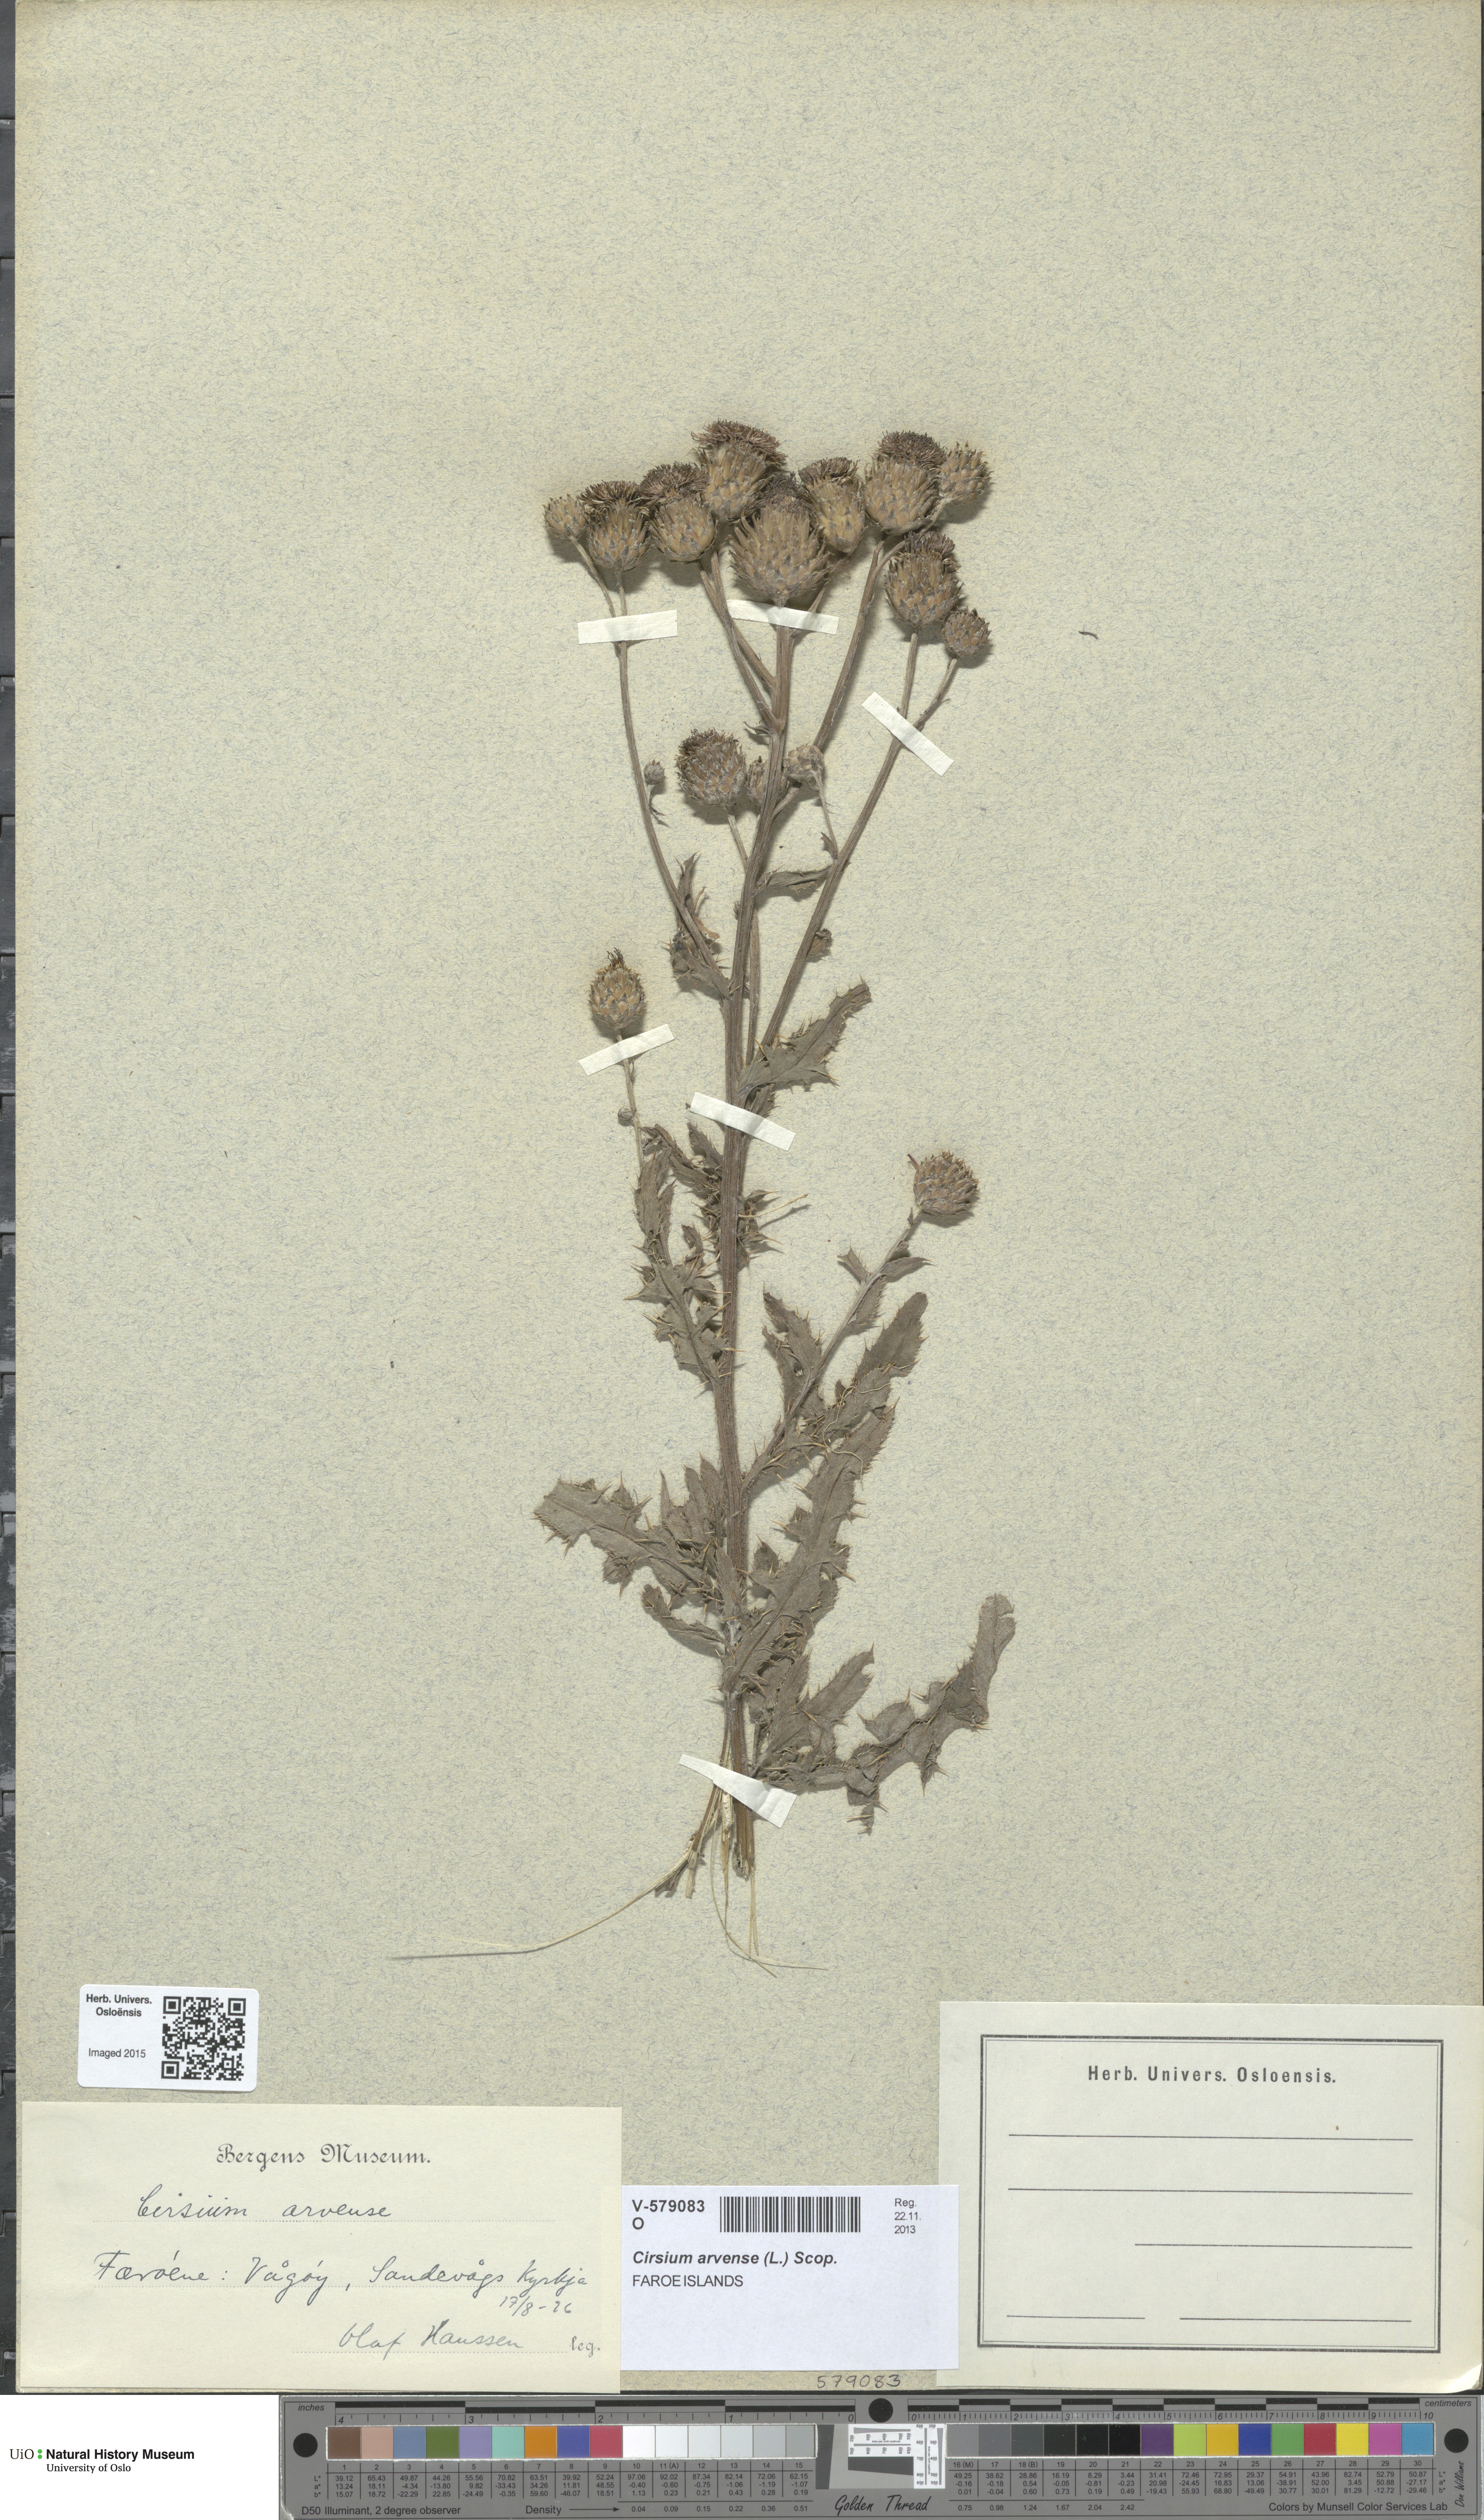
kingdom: Plantae
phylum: Tracheophyta
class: Magnoliopsida
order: Asterales
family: Asteraceae
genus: Cirsium
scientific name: Cirsium arvense
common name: Creeping thistle
